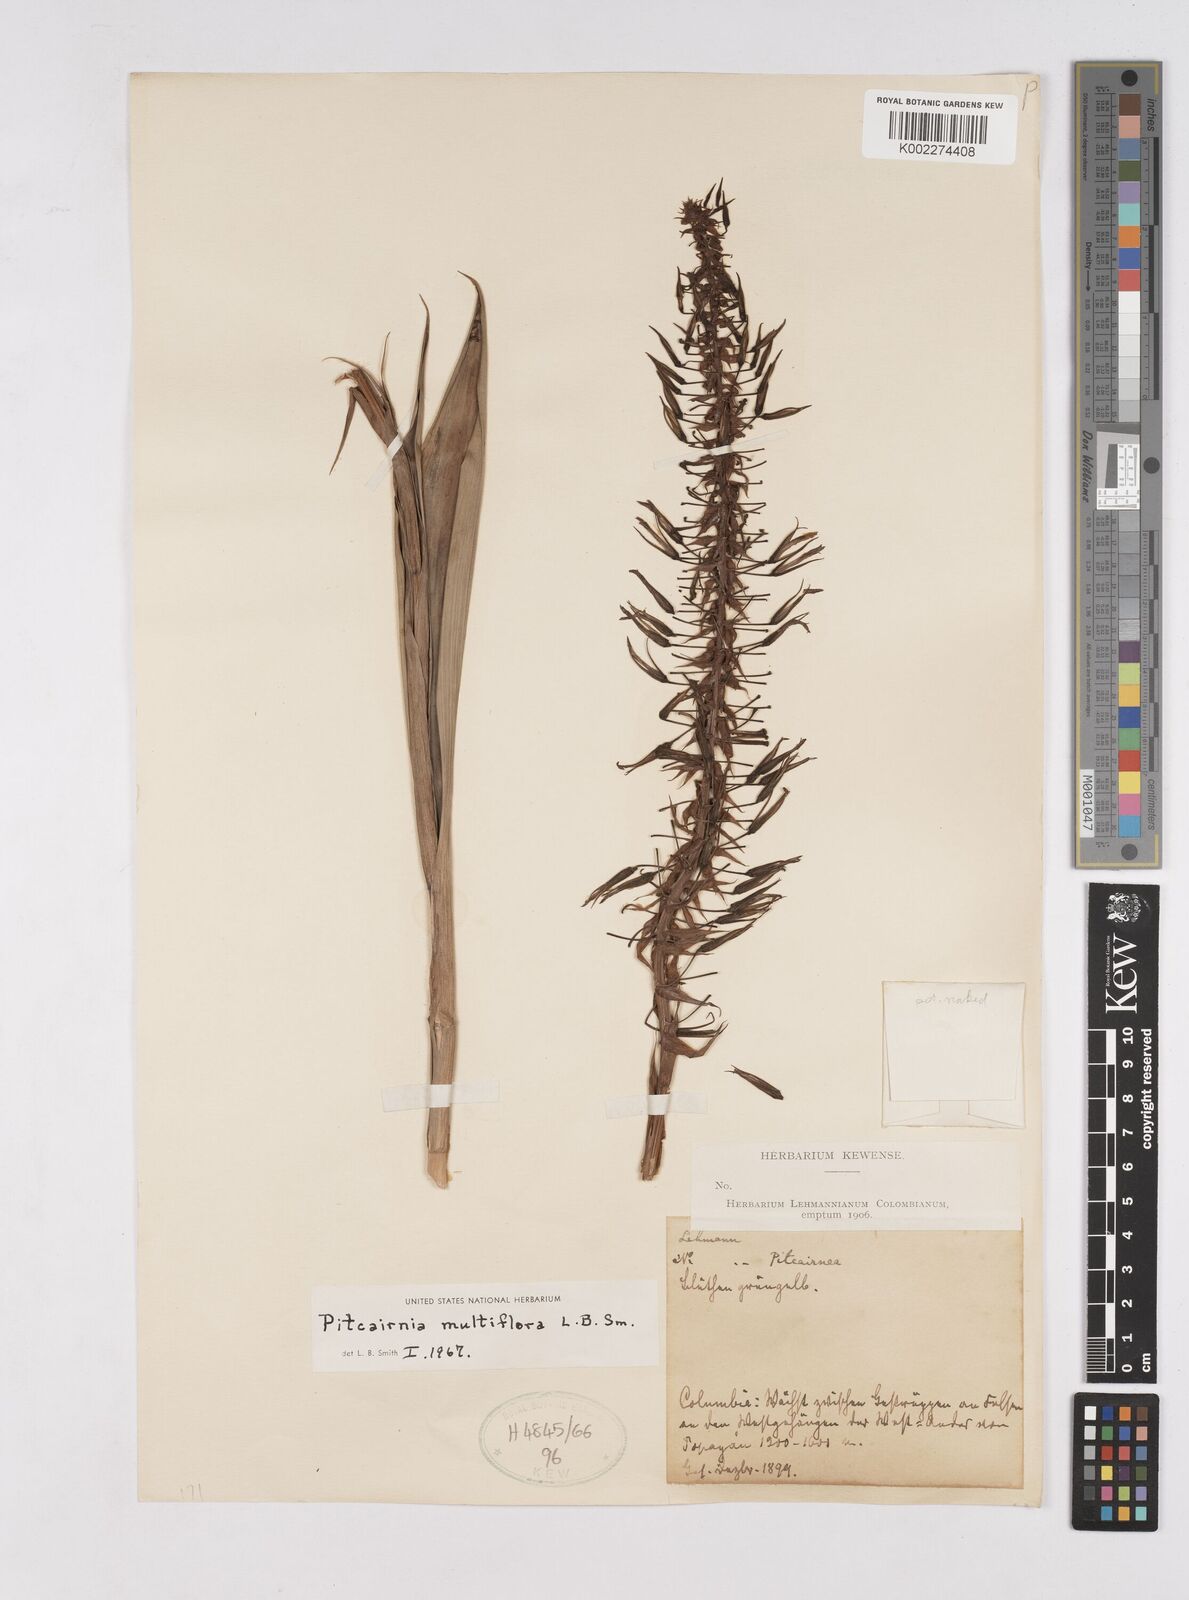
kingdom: Plantae
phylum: Tracheophyta
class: Liliopsida
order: Poales
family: Bromeliaceae
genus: Pitcairnia
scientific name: Pitcairnia multiflora
